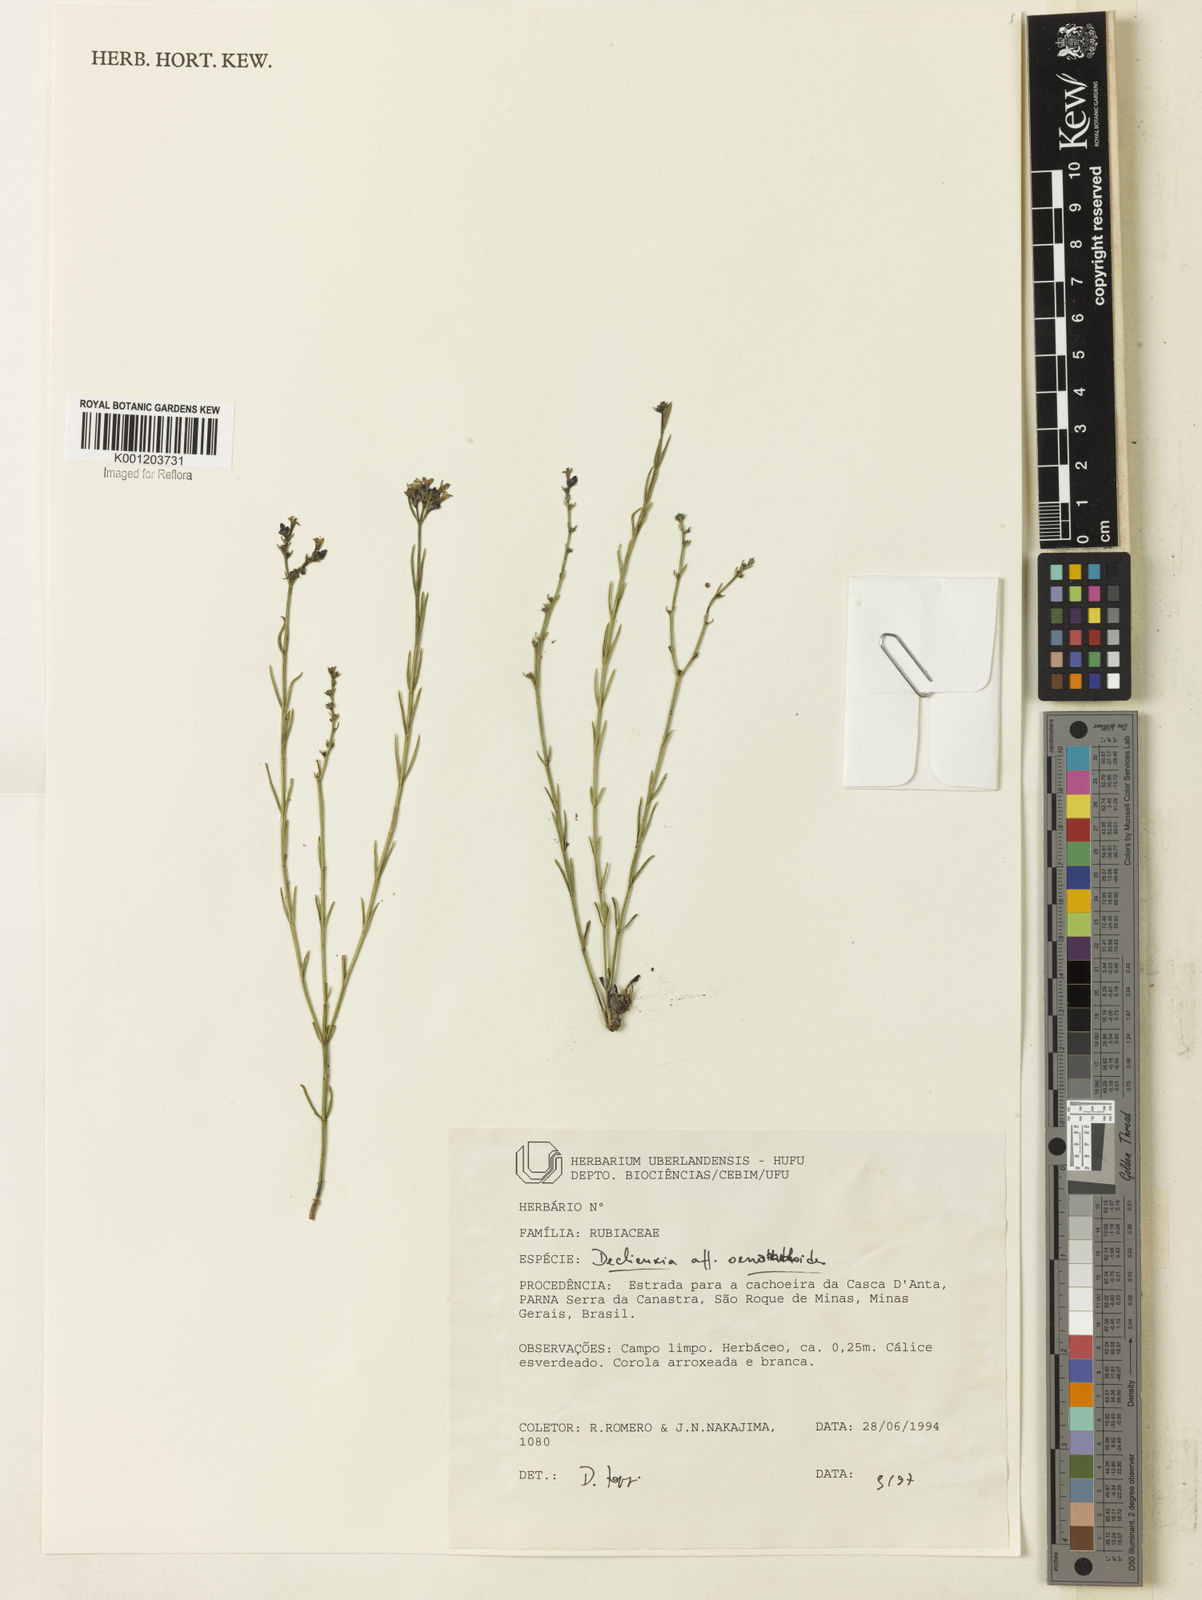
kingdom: Plantae
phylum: Tracheophyta
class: Magnoliopsida
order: Gentianales
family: Rubiaceae
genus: Declieuxia
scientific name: Declieuxia
